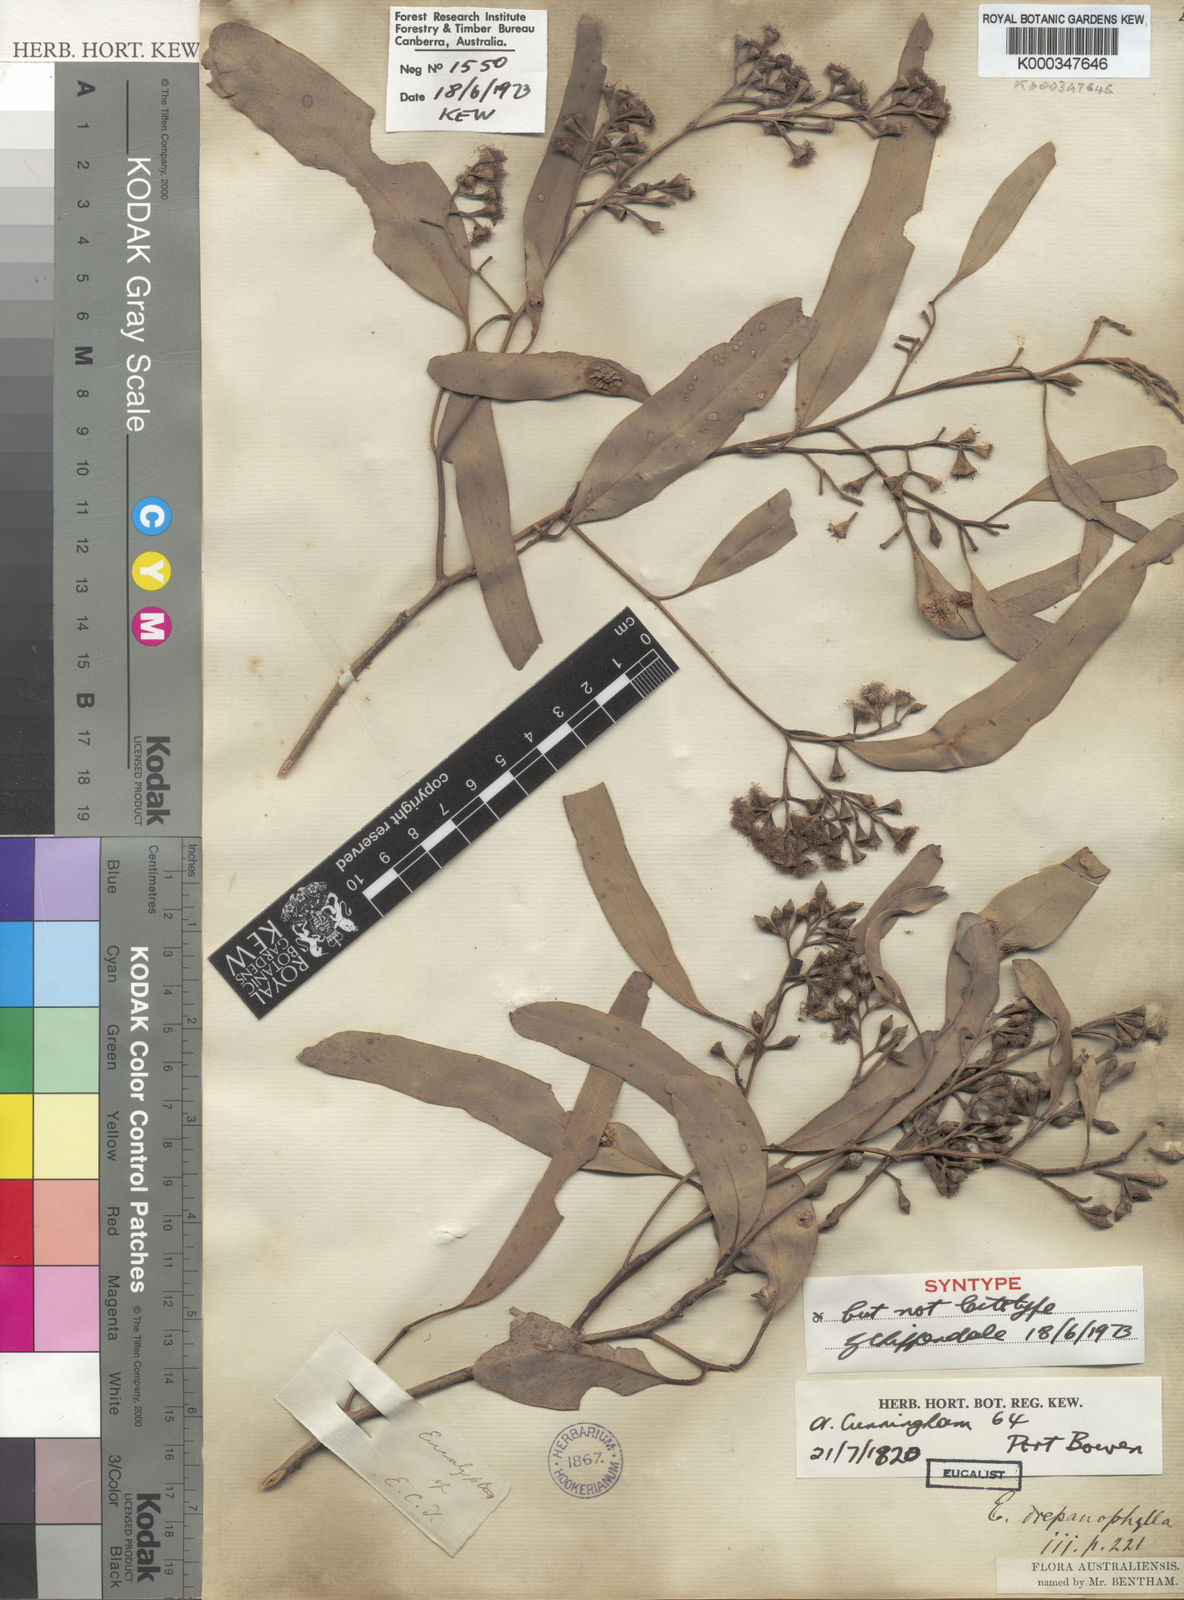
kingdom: Plantae
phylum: Tracheophyta
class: Magnoliopsida
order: Myrtales
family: Myrtaceae
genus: Eucalyptus
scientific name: Eucalyptus drepanophylla
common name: Queensland grey ironbark
